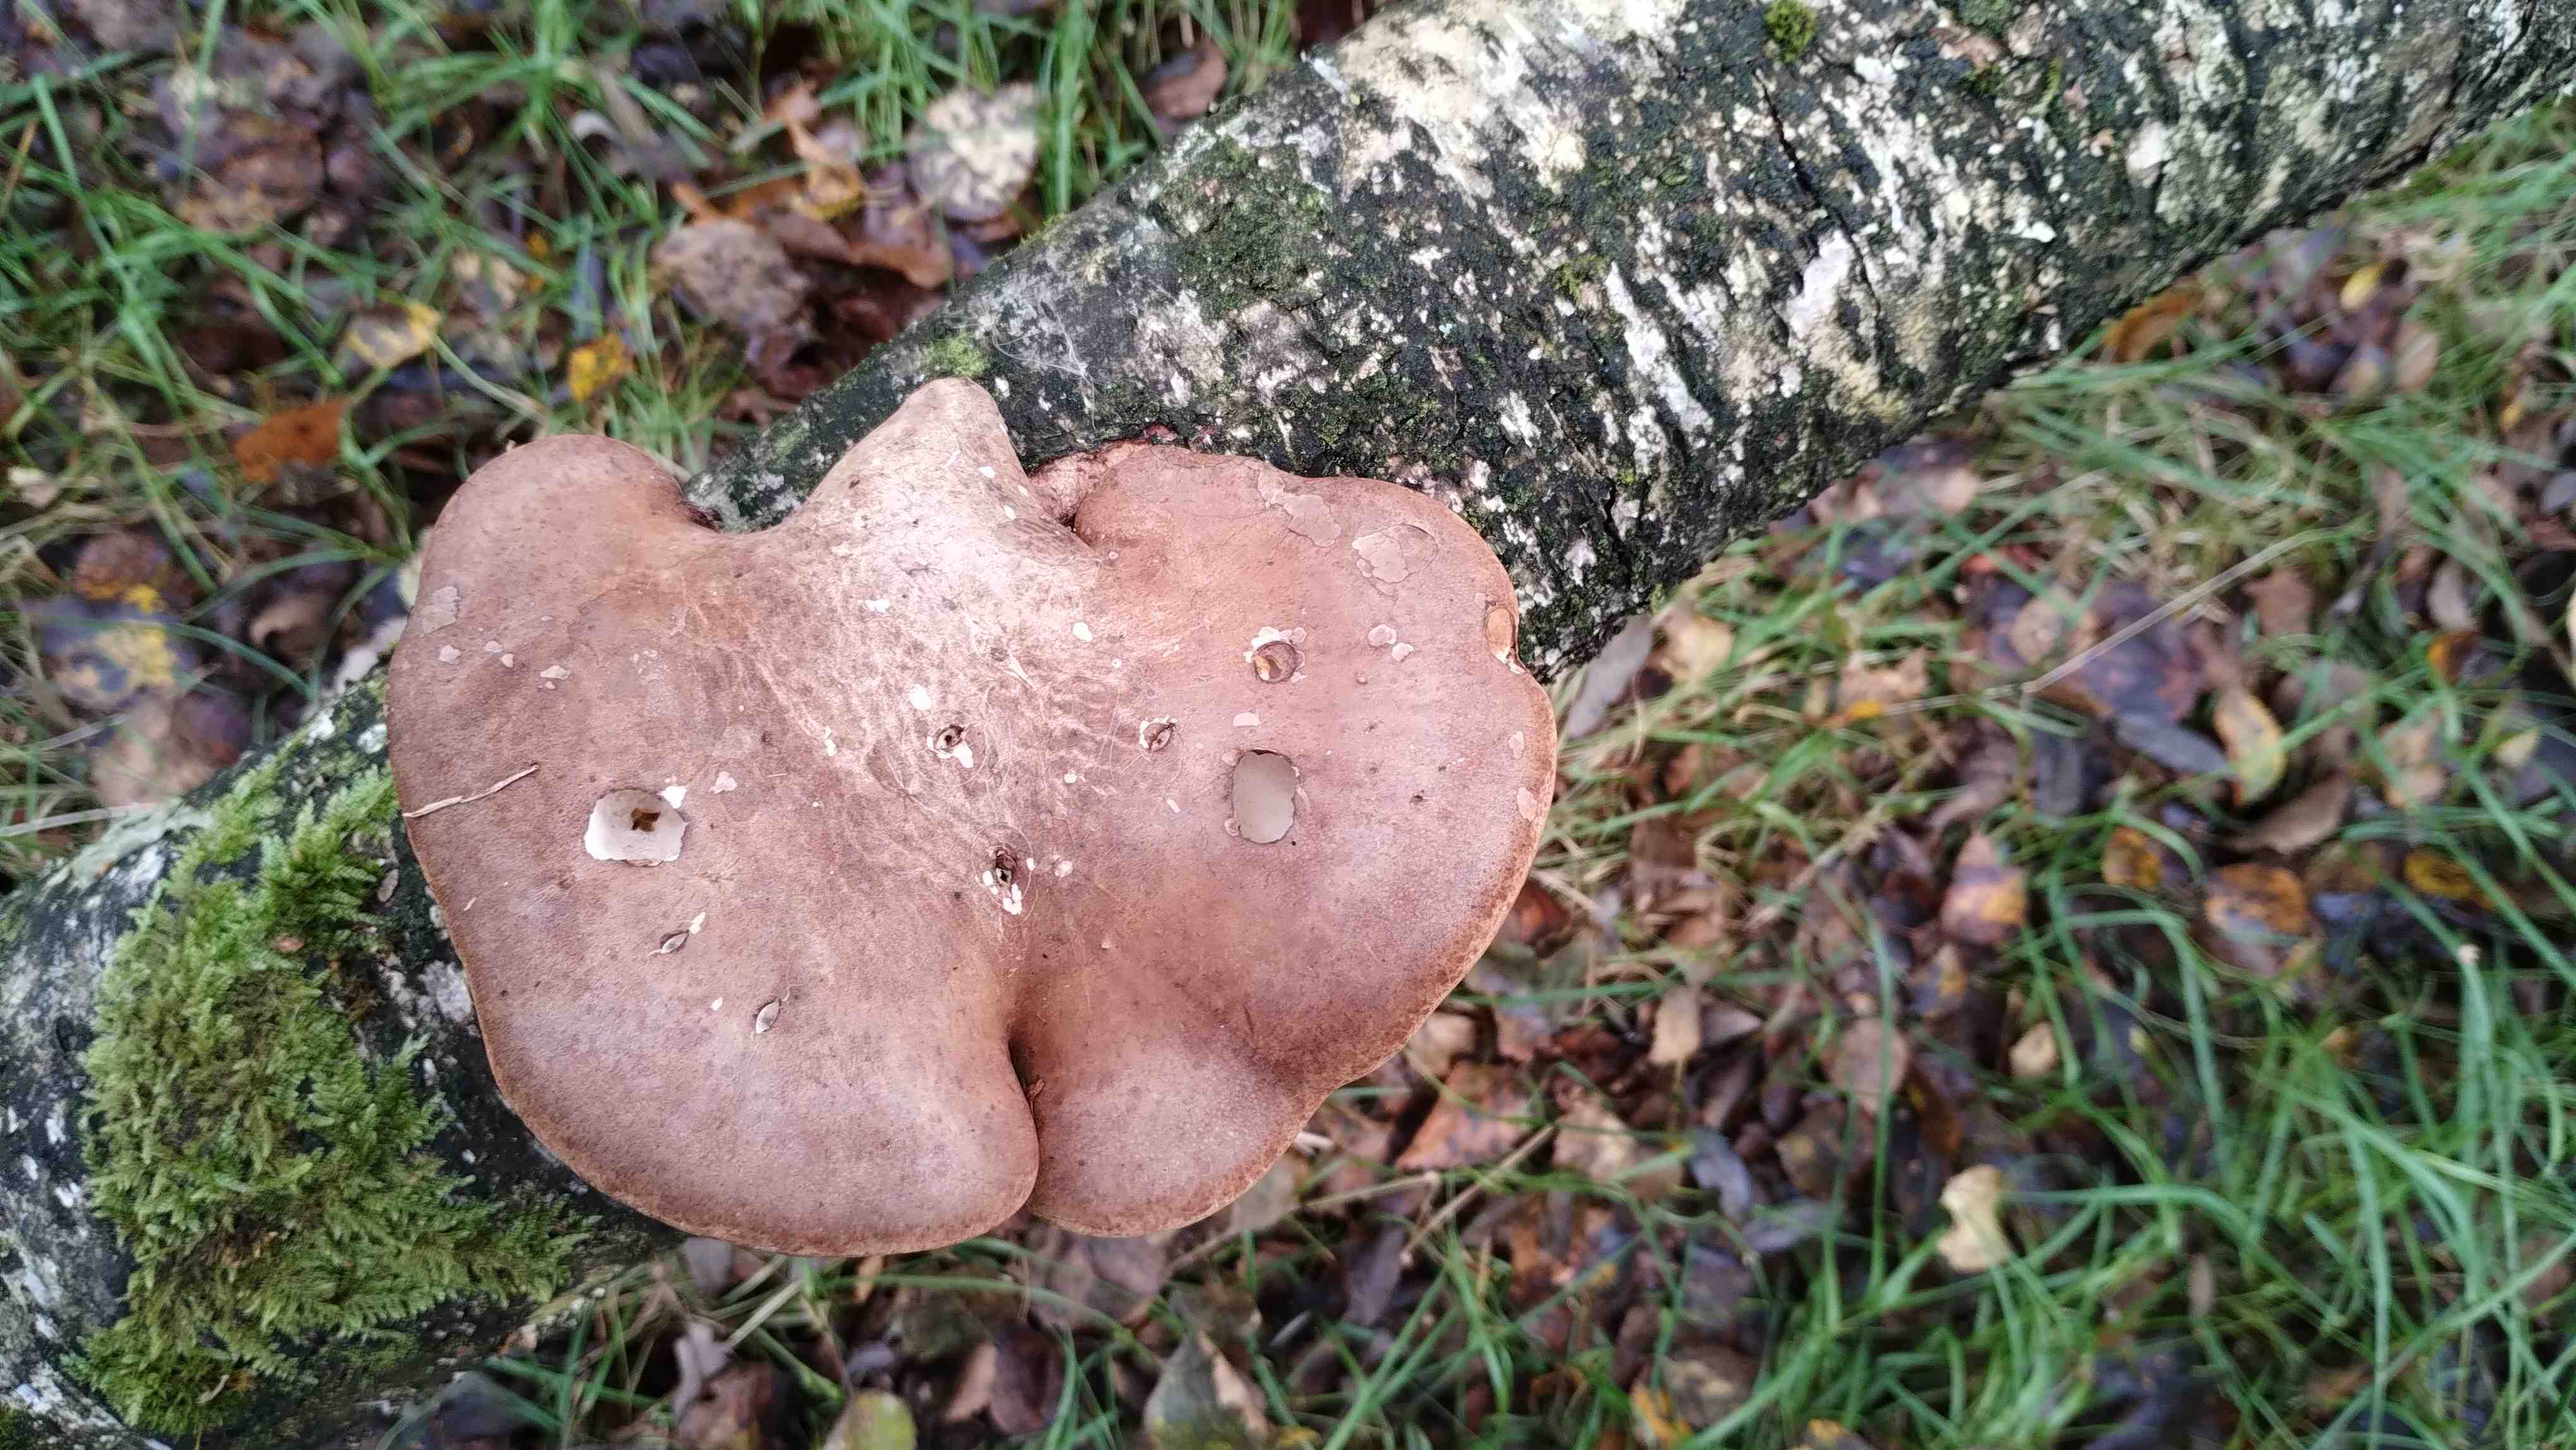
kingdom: Fungi
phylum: Basidiomycota
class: Agaricomycetes
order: Polyporales
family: Fomitopsidaceae
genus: Fomitopsis
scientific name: Fomitopsis betulina
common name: birkeporesvamp
